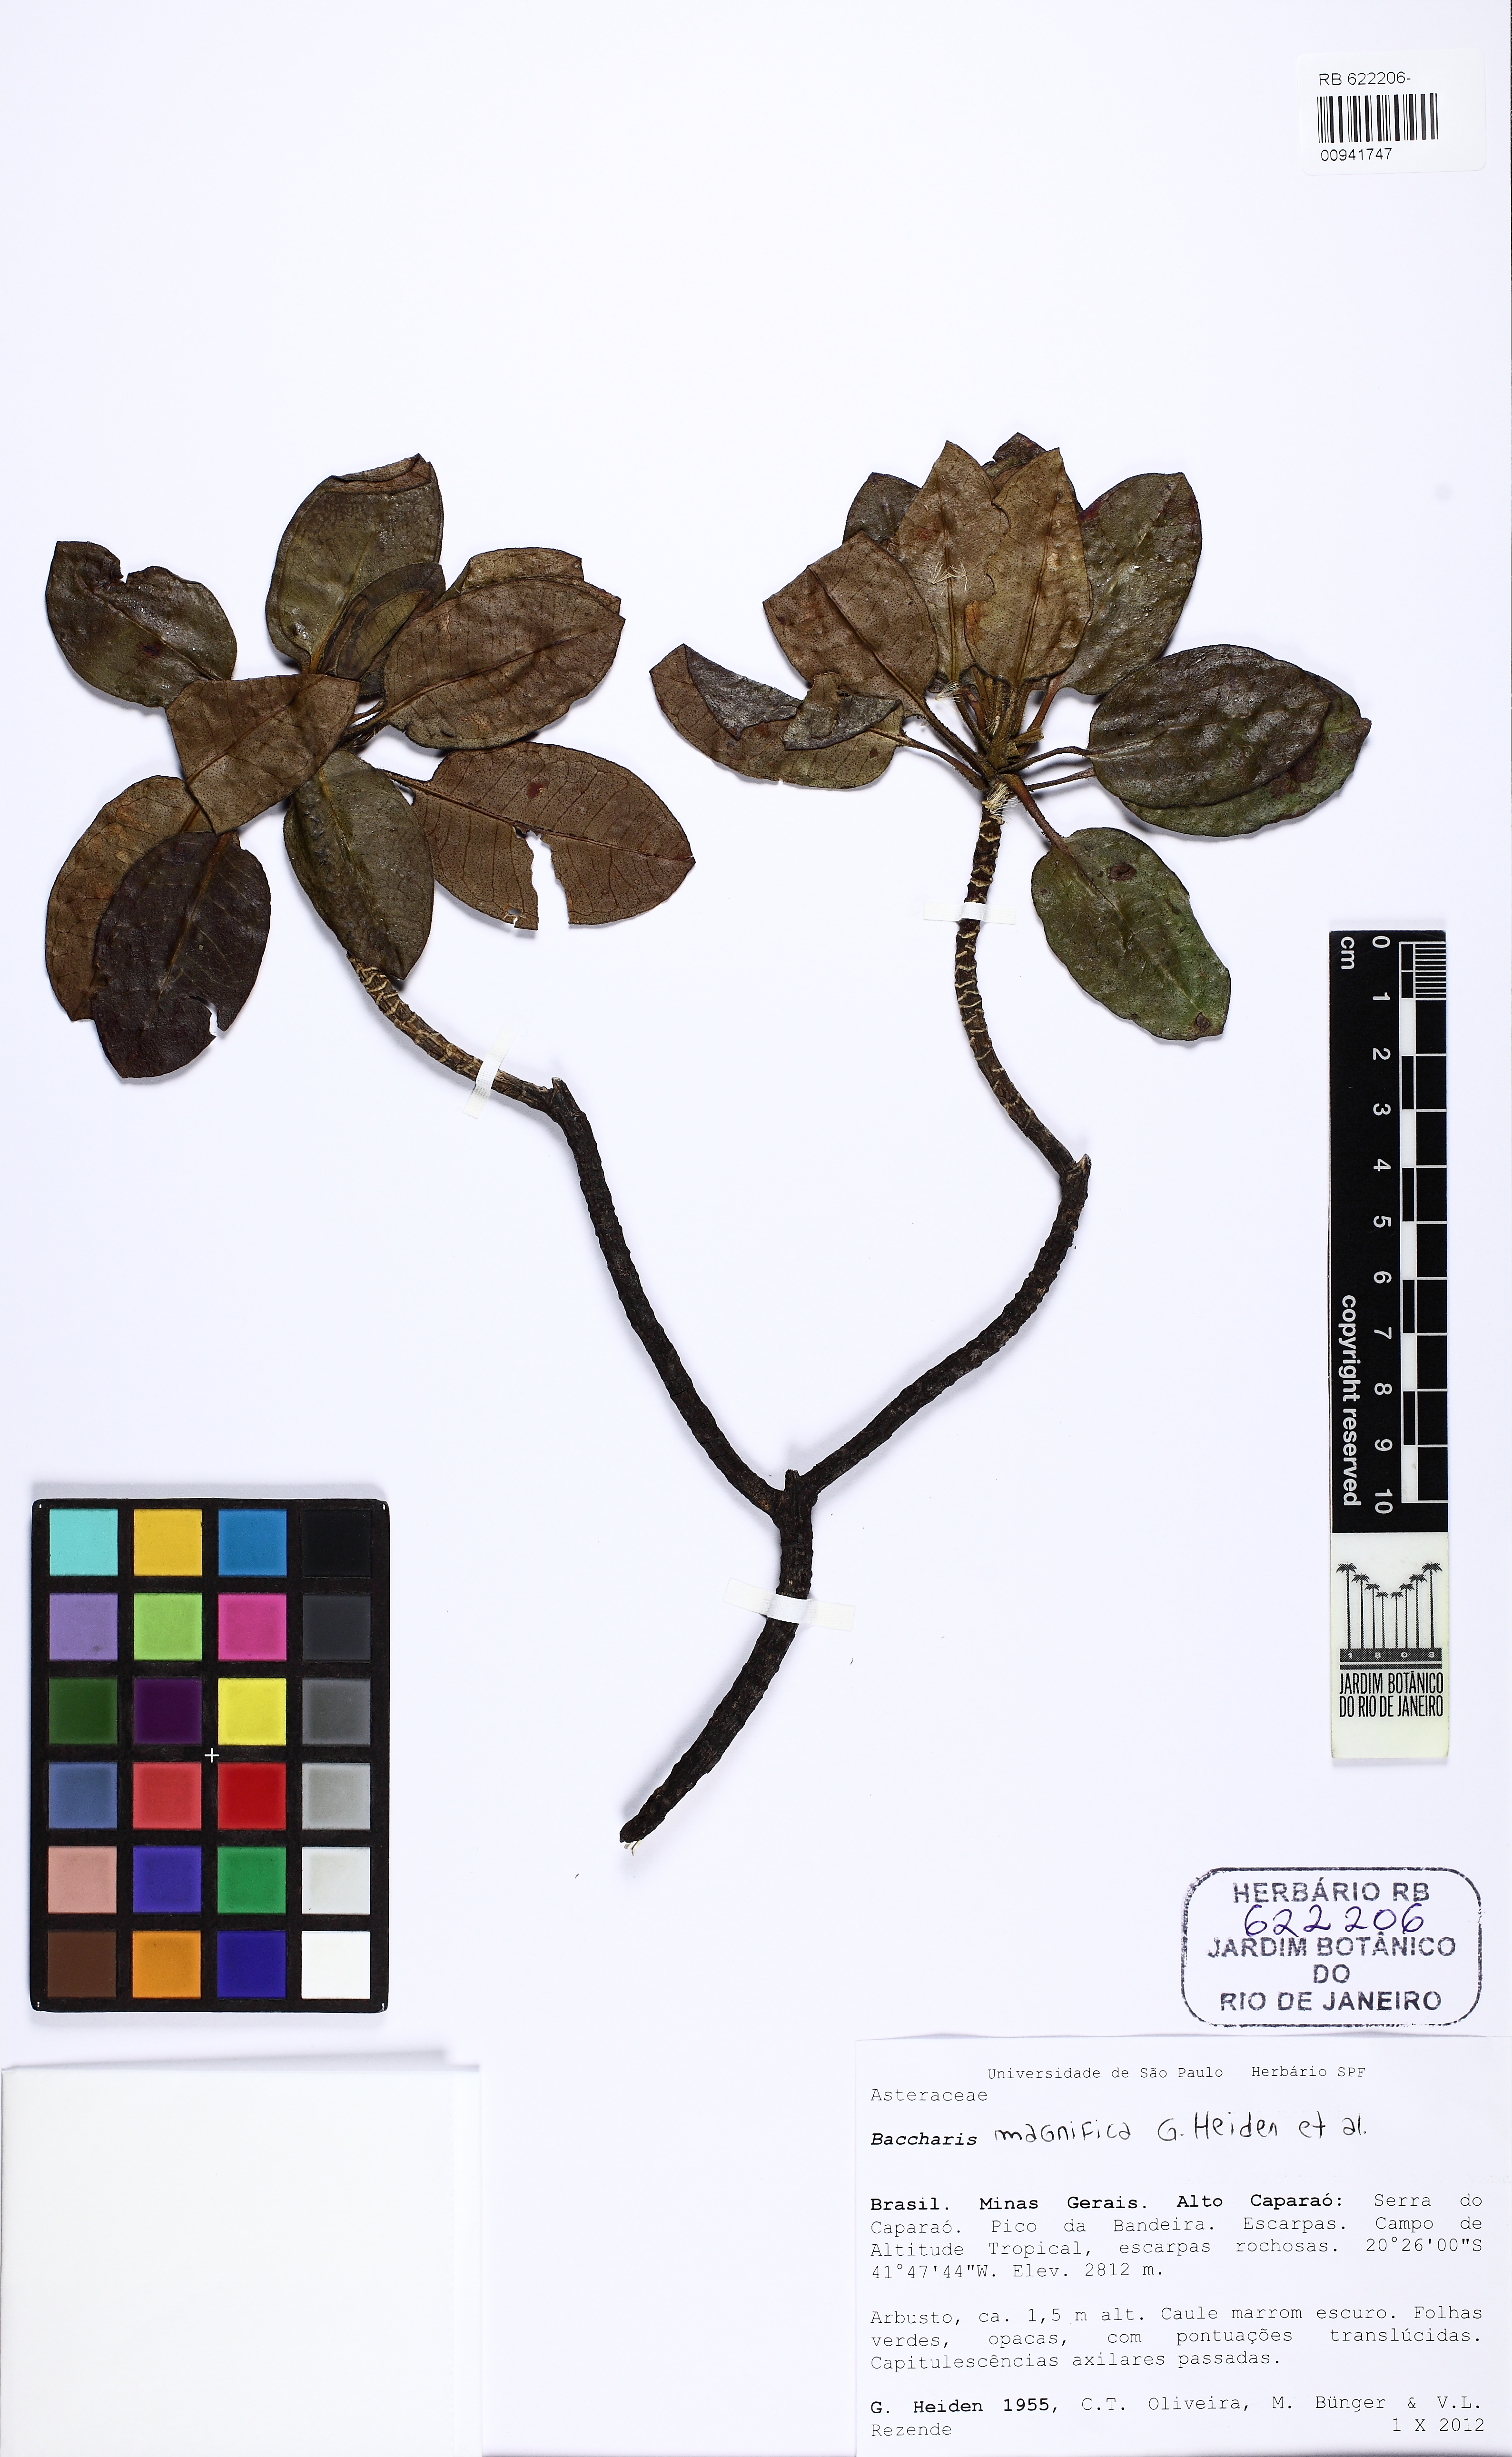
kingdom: Plantae
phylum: Tracheophyta
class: Magnoliopsida
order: Asterales
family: Asteraceae
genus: Baccharis
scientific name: Baccharis magnifica
